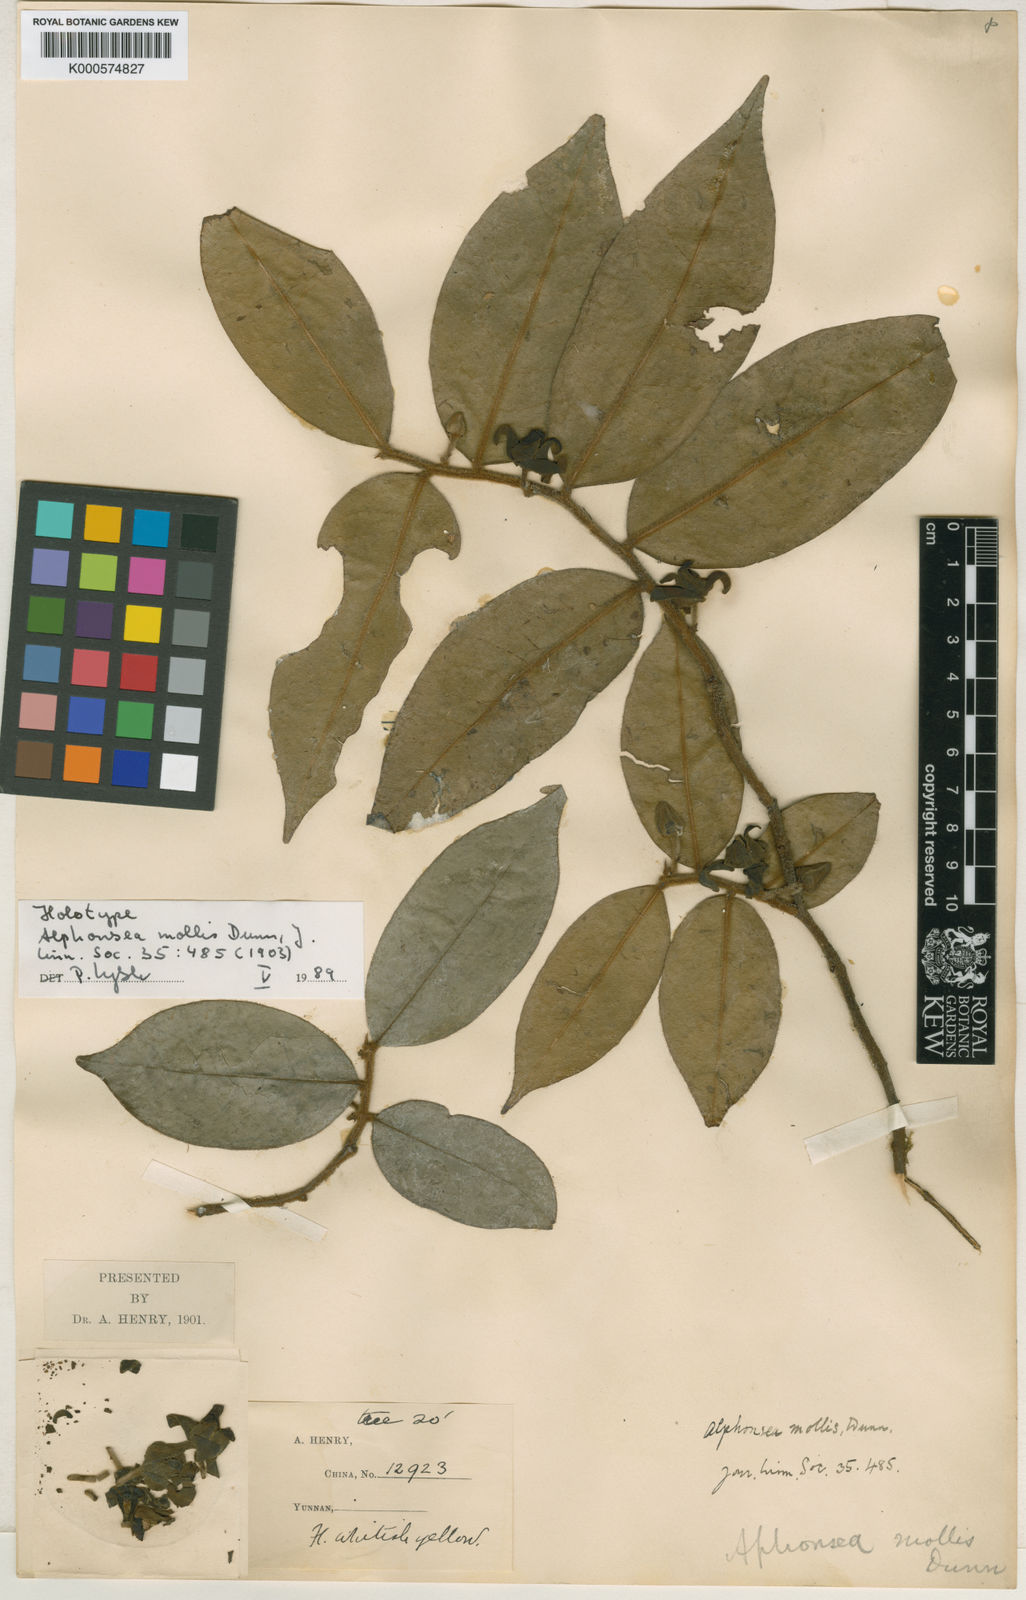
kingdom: Plantae
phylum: Tracheophyta
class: Magnoliopsida
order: Magnoliales
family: Annonaceae
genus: Alphonsea
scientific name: Alphonsea mollis
